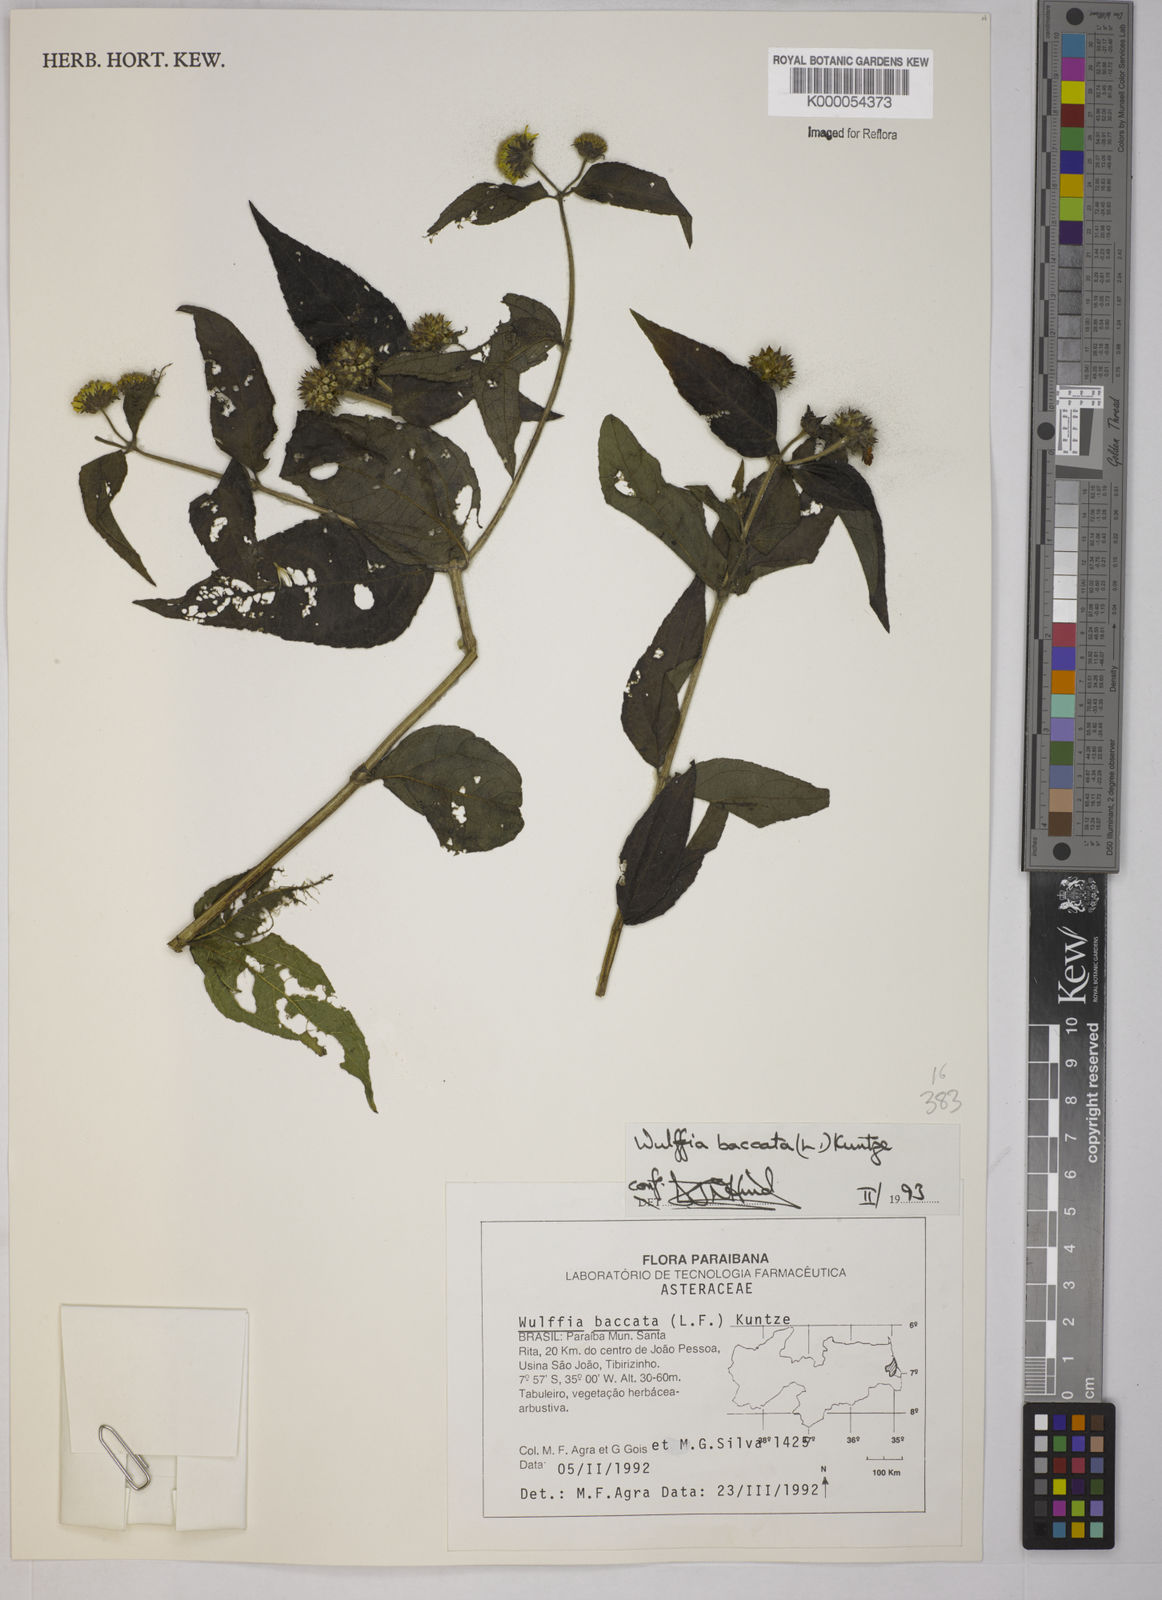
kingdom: Plantae
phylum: Tracheophyta
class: Magnoliopsida
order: Asterales
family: Asteraceae
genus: Tilesia
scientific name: Tilesia baccata
